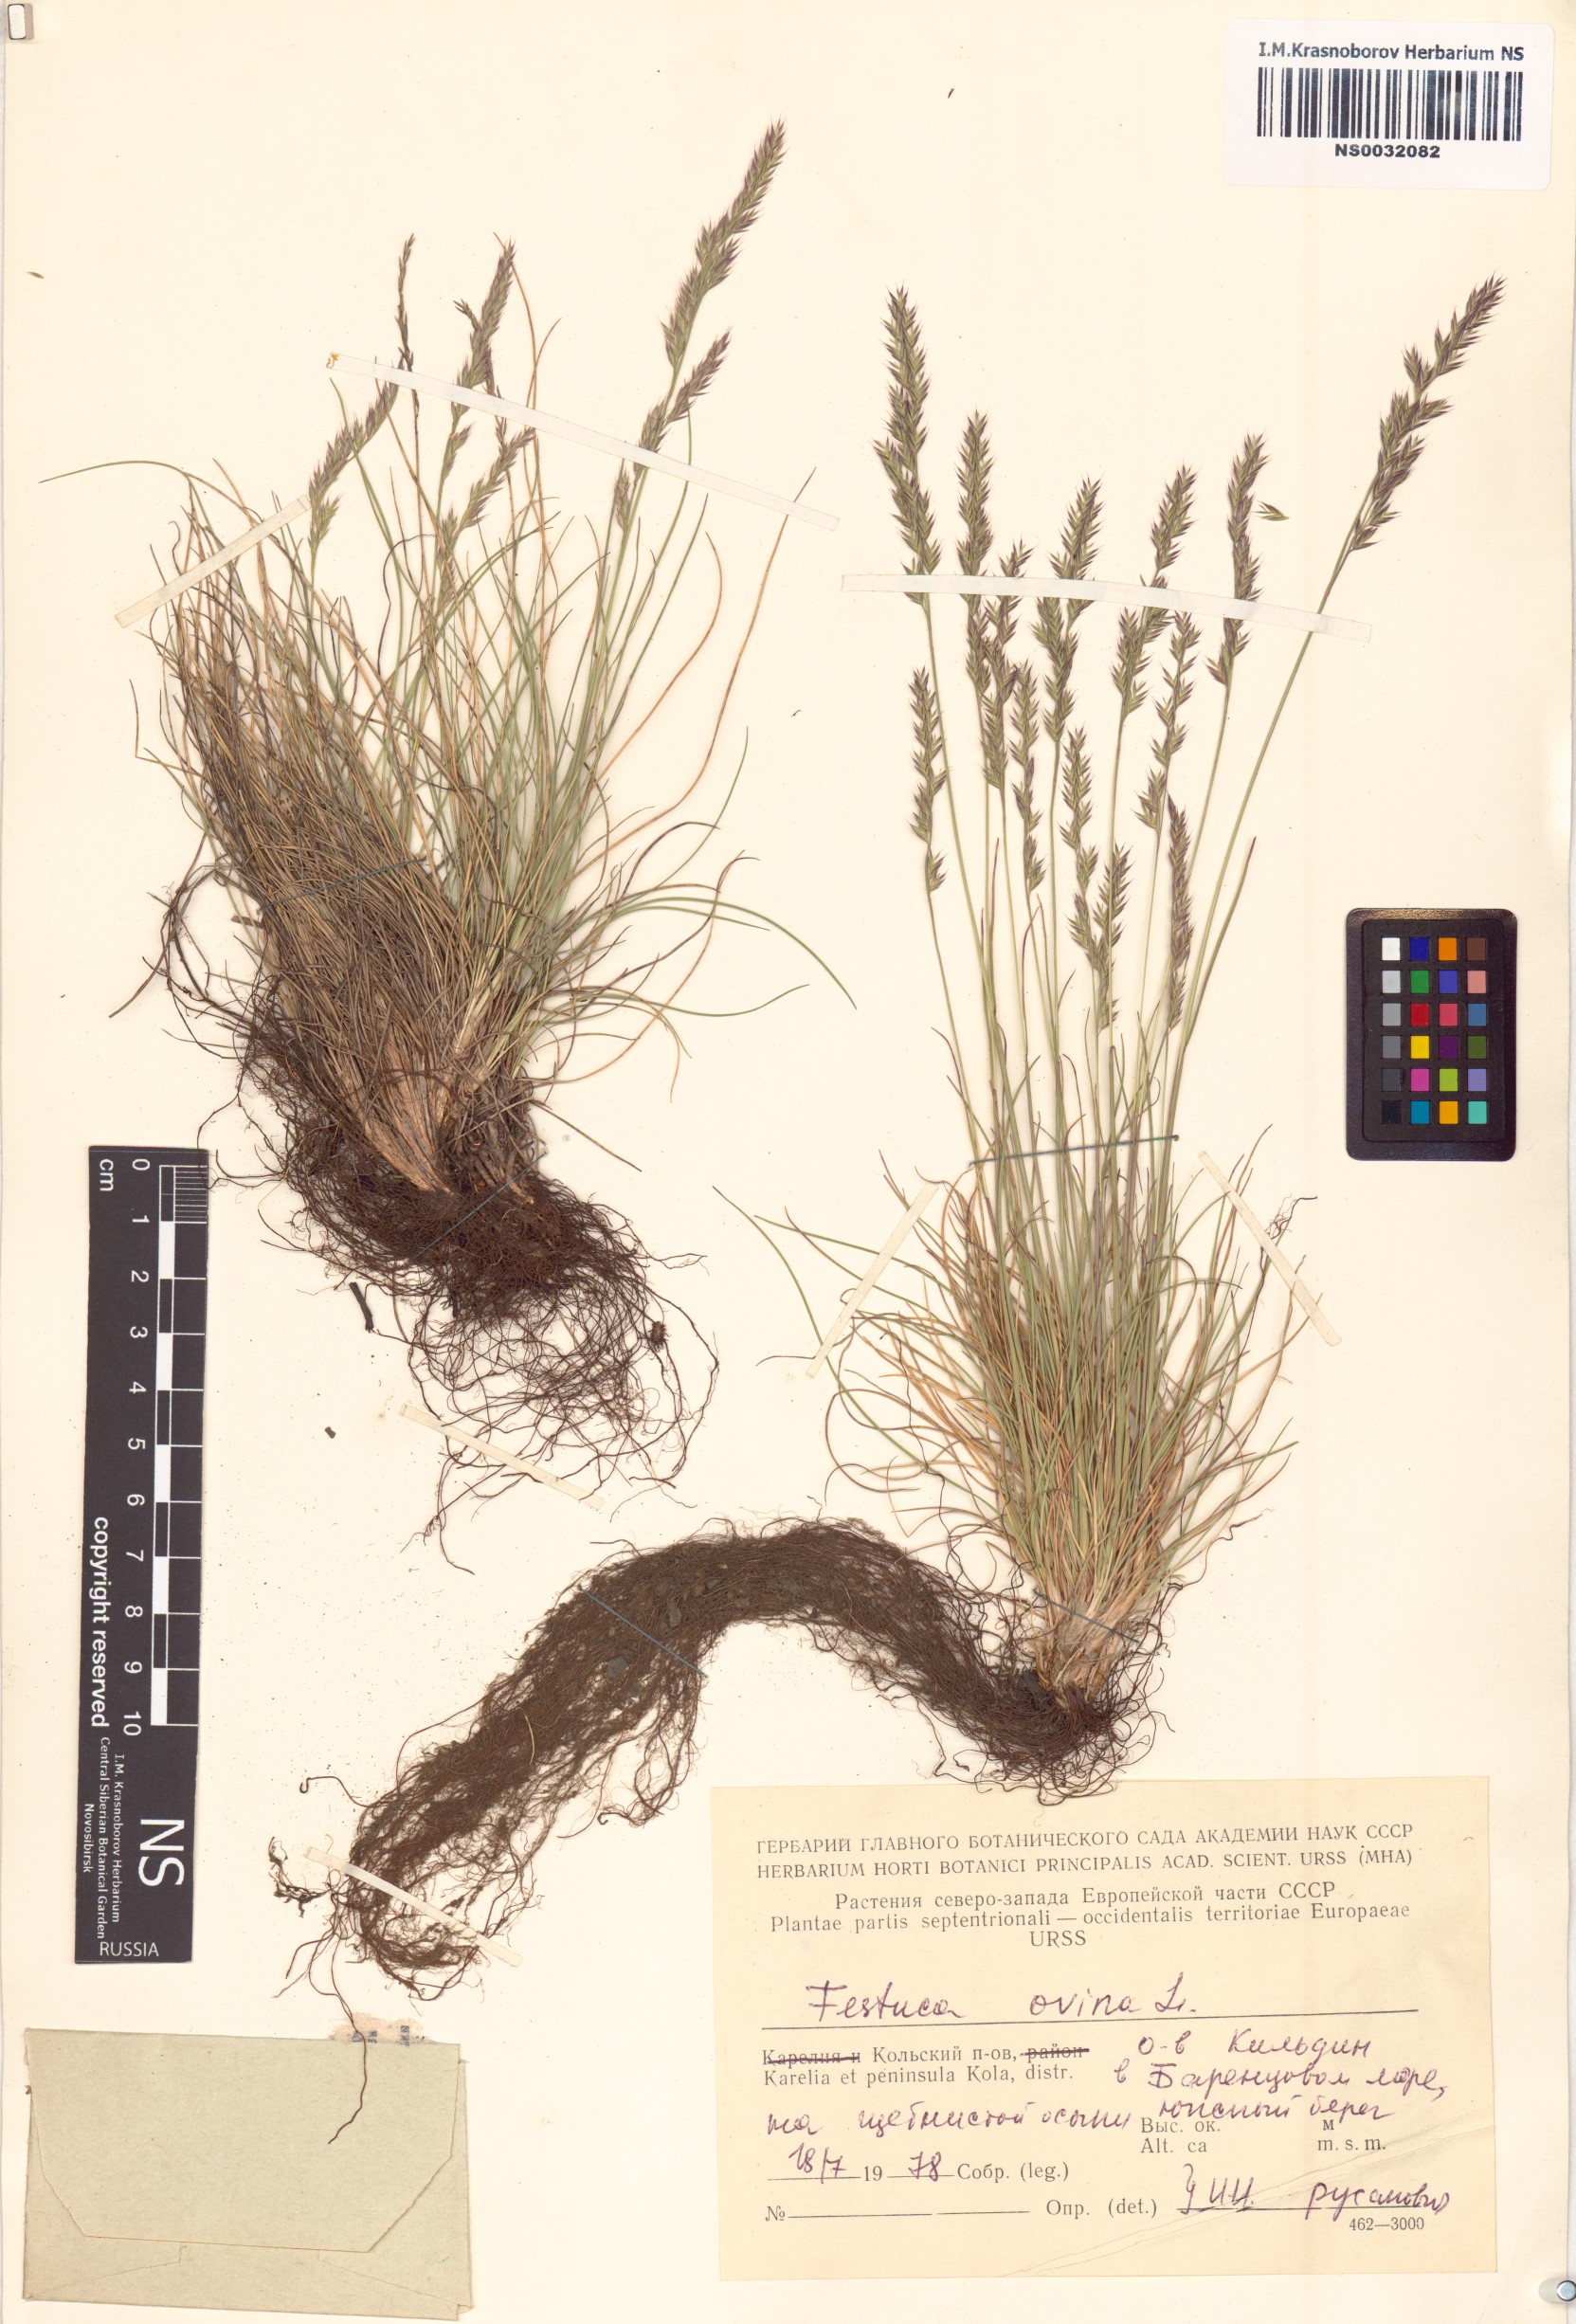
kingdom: Plantae
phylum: Tracheophyta
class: Liliopsida
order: Poales
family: Poaceae
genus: Festuca
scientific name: Festuca ovina
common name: Sheep fescue
